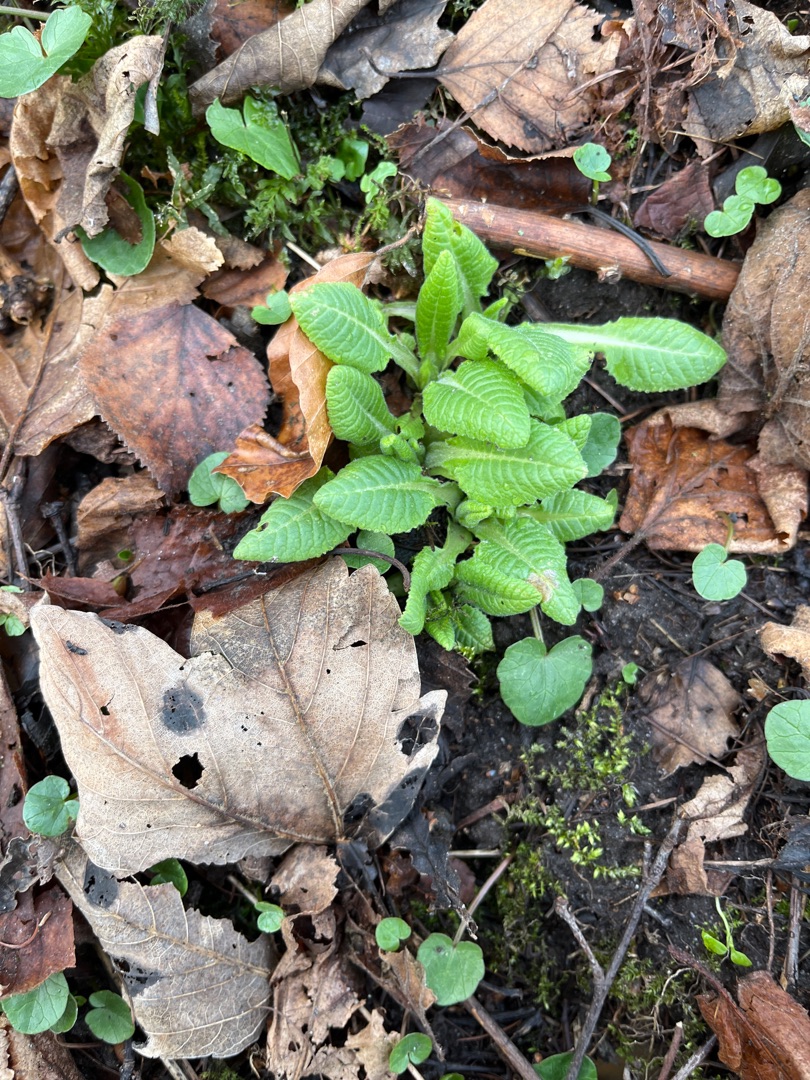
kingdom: Plantae
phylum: Tracheophyta
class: Magnoliopsida
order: Ericales
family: Primulaceae
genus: Primula
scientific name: Primula elatior
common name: Fladkravet kodriver
